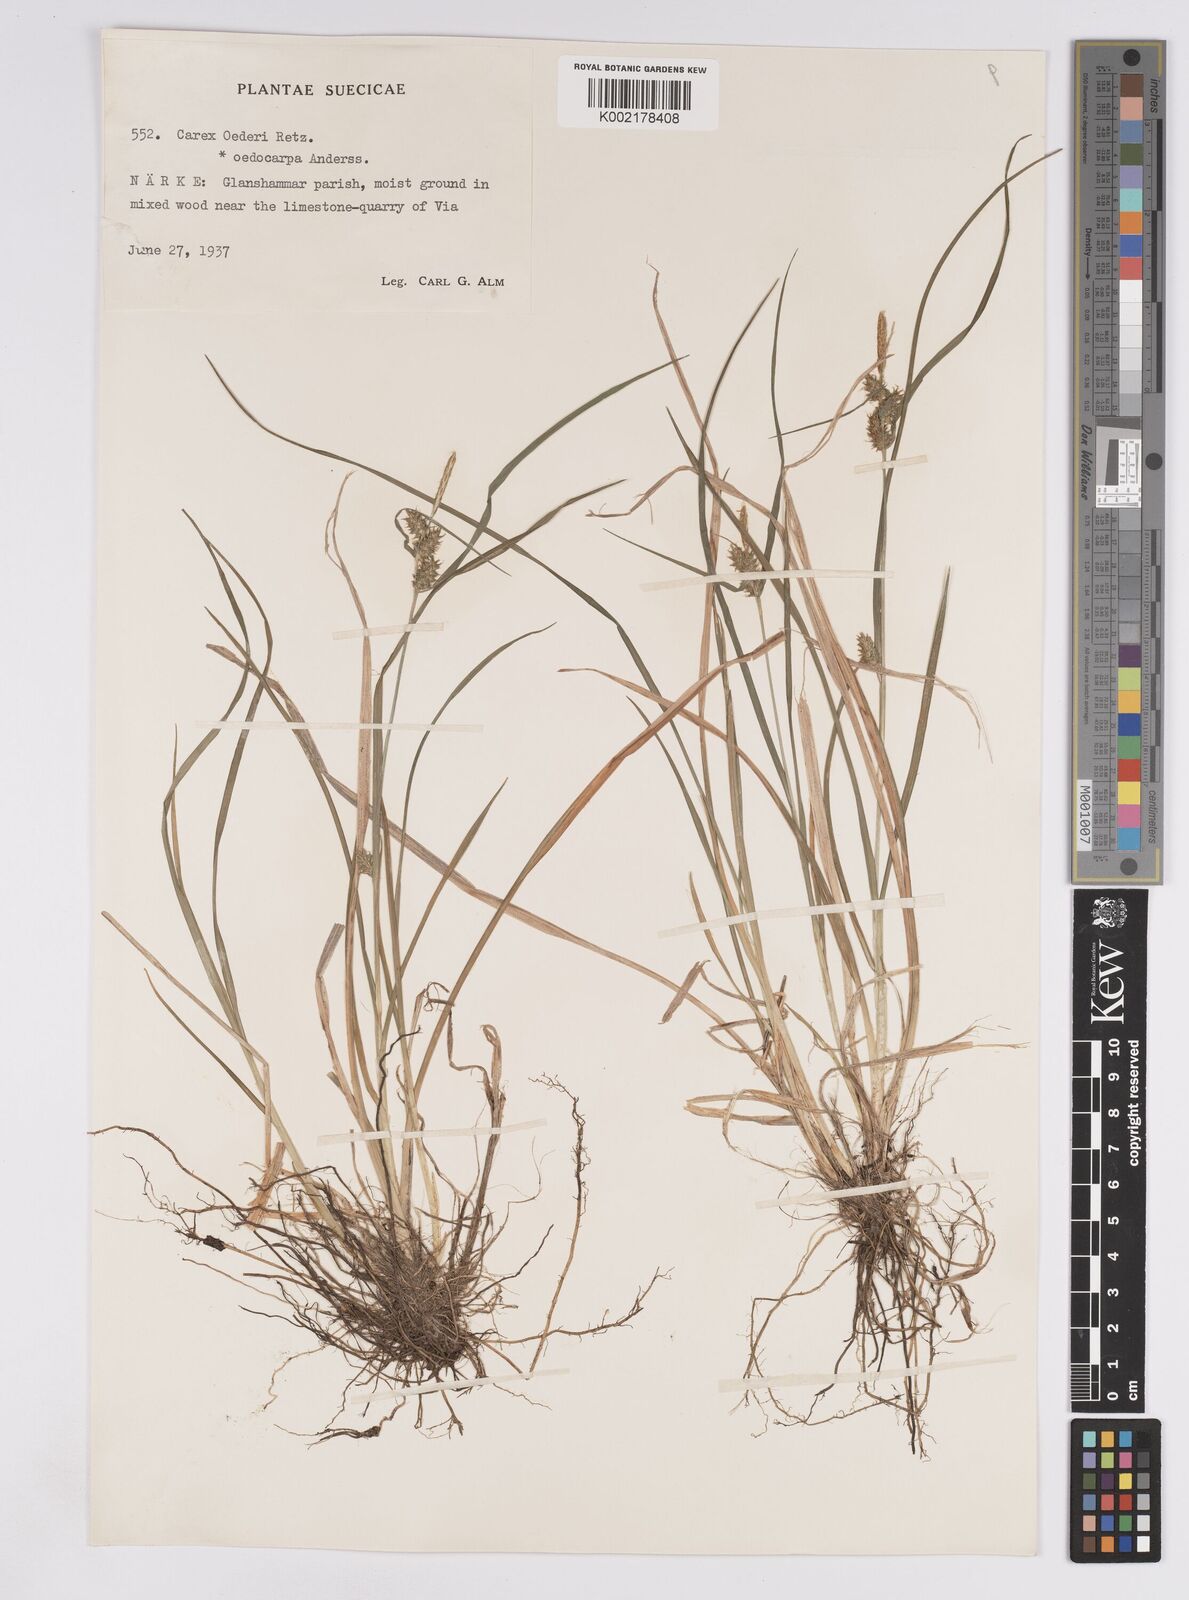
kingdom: Plantae
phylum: Tracheophyta
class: Liliopsida
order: Poales
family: Cyperaceae
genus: Carex
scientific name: Carex demissa
